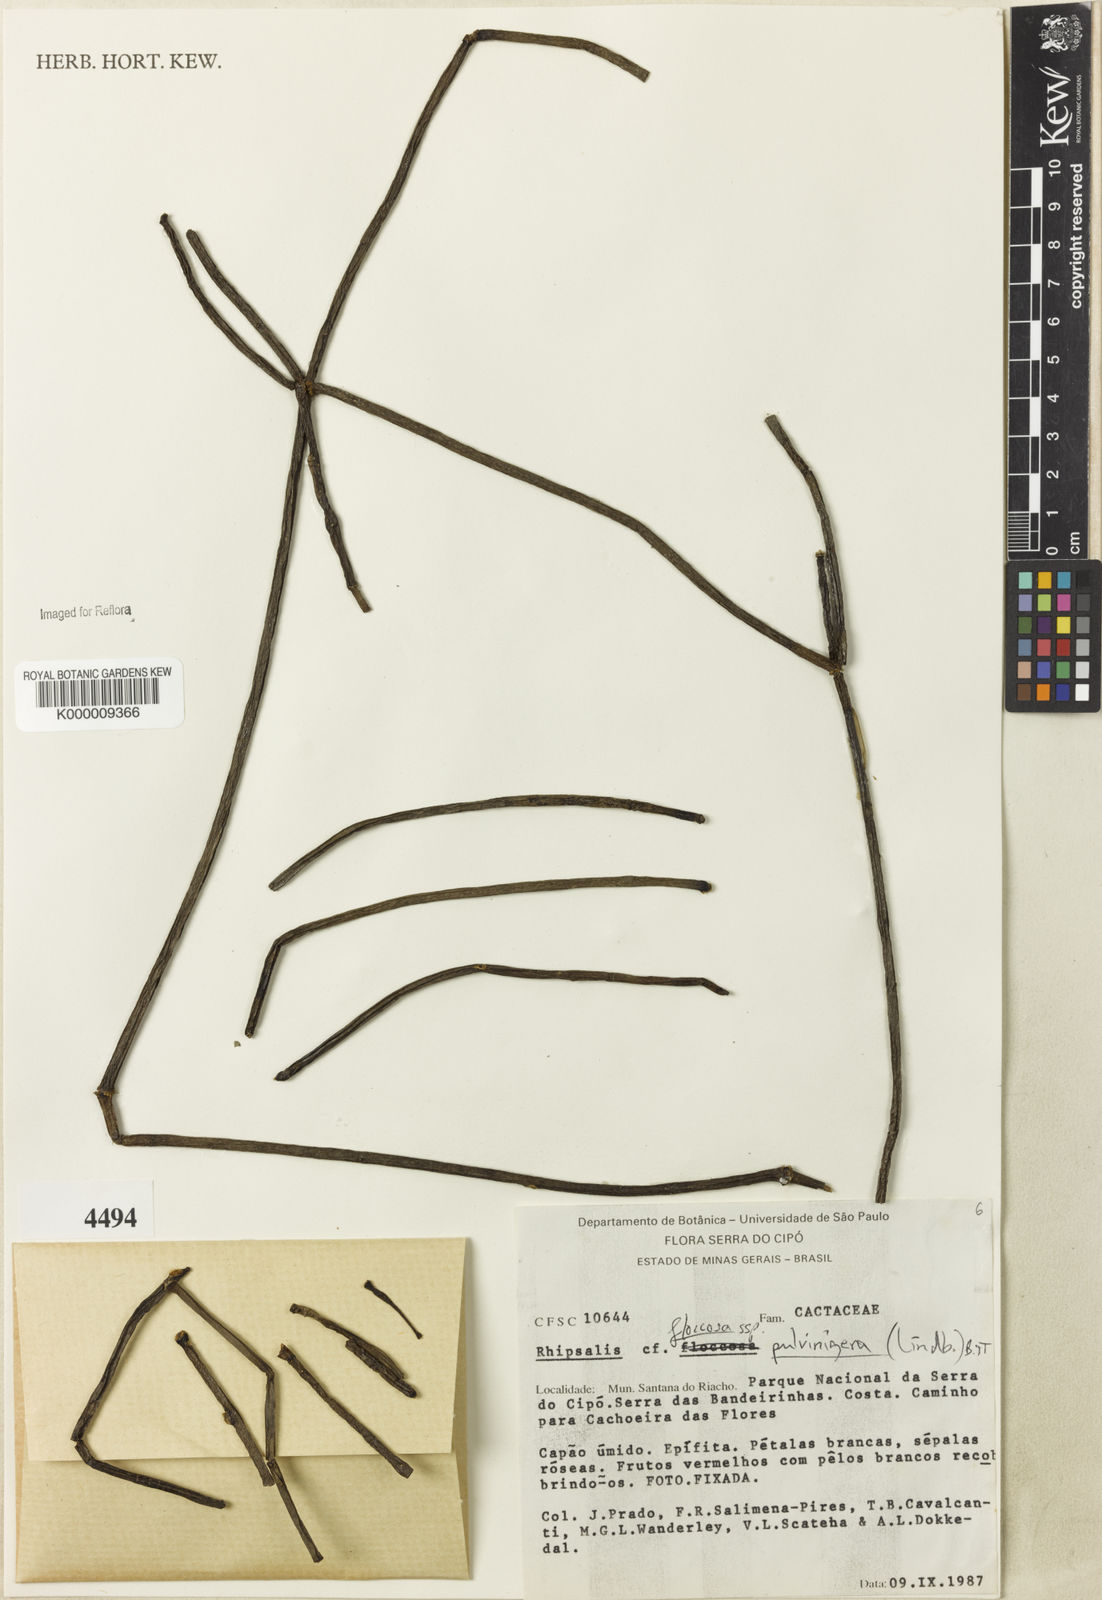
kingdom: Plantae
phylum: Tracheophyta
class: Magnoliopsida
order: Caryophyllales
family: Cactaceae
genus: Rhipsalis
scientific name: Rhipsalis floccosa
